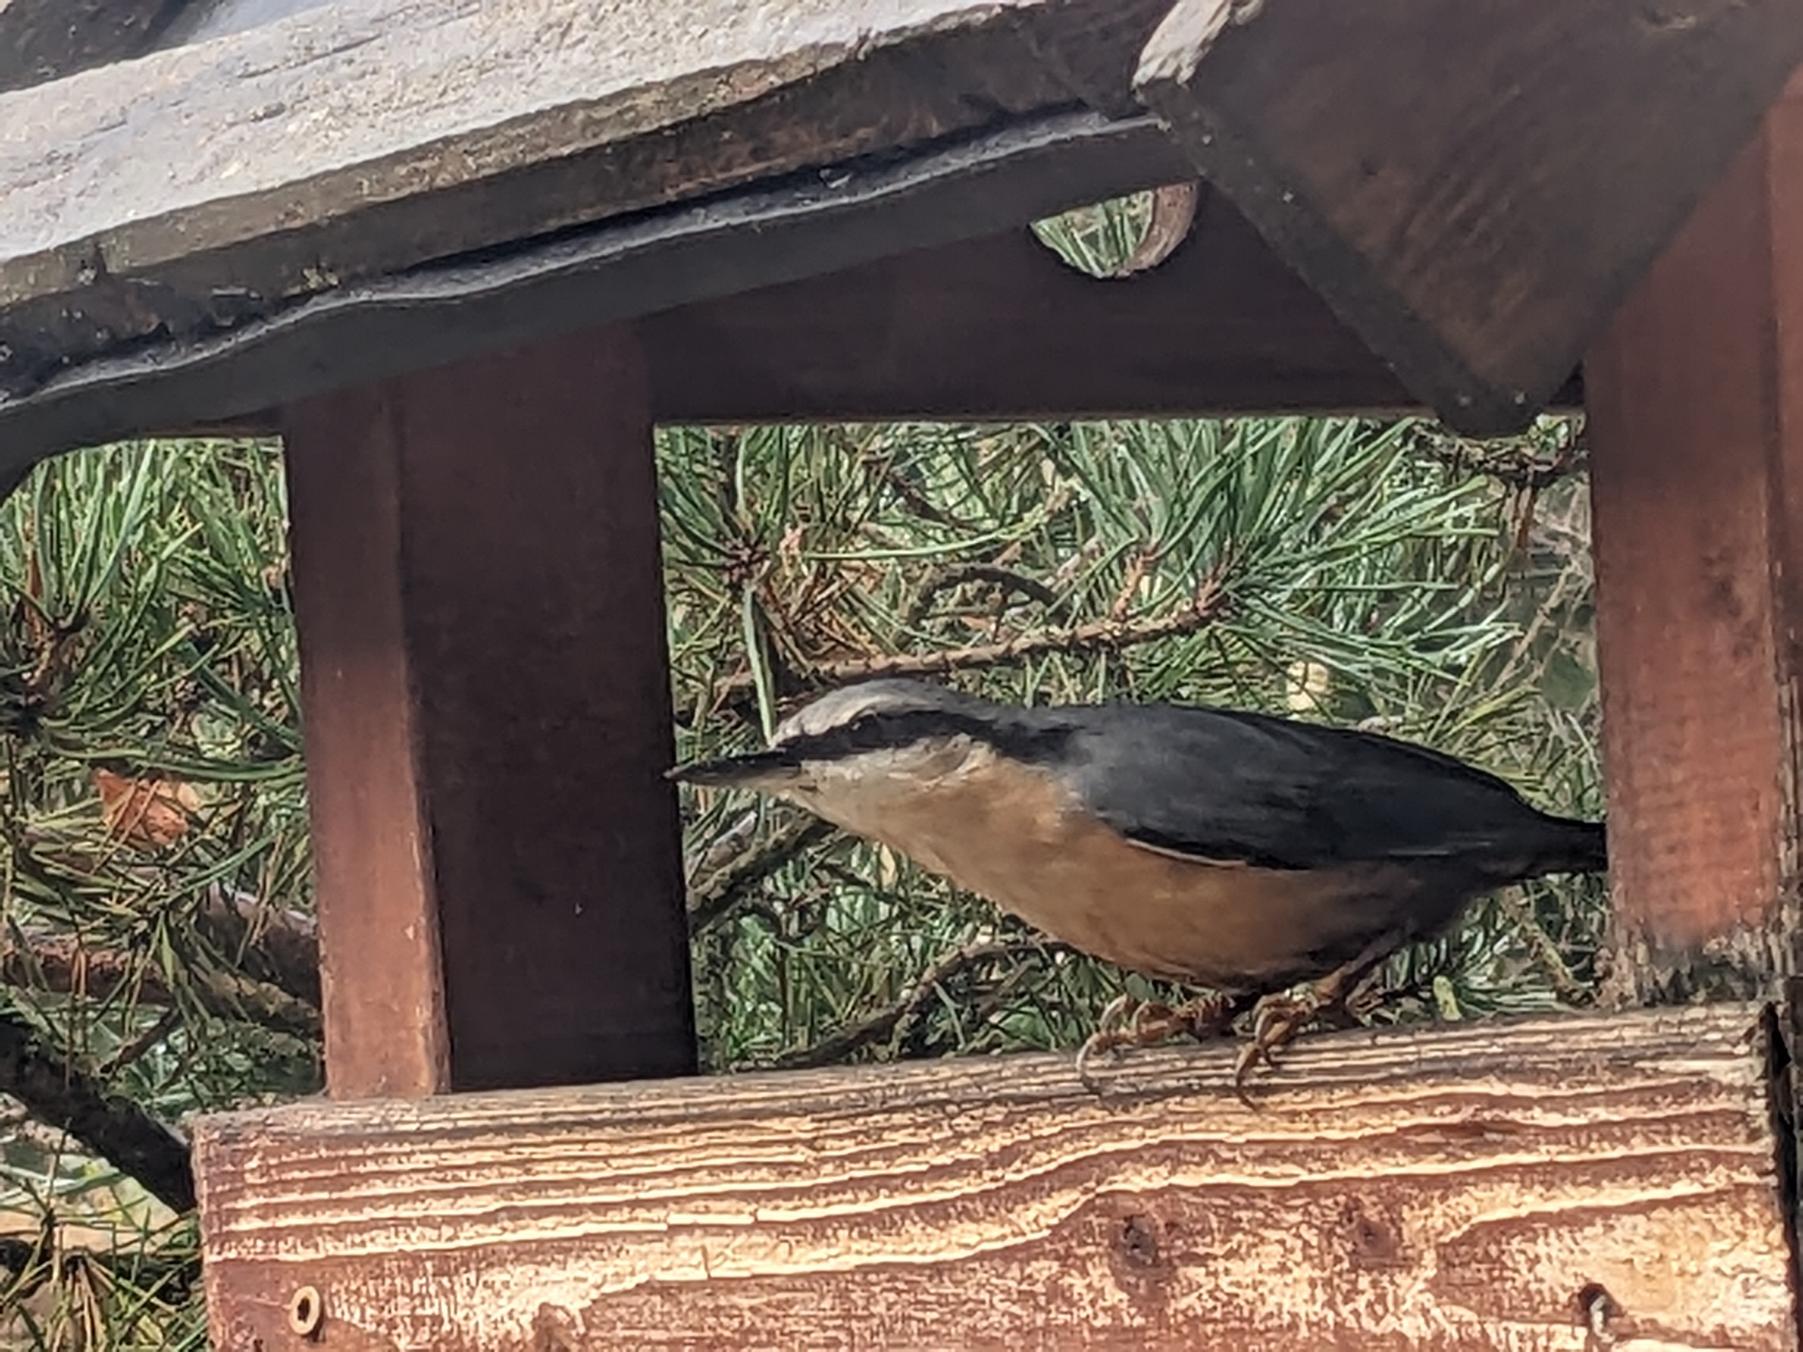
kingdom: Animalia
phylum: Chordata
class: Aves
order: Passeriformes
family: Sittidae
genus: Sitta
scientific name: Sitta europaea
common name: Spætmejse
